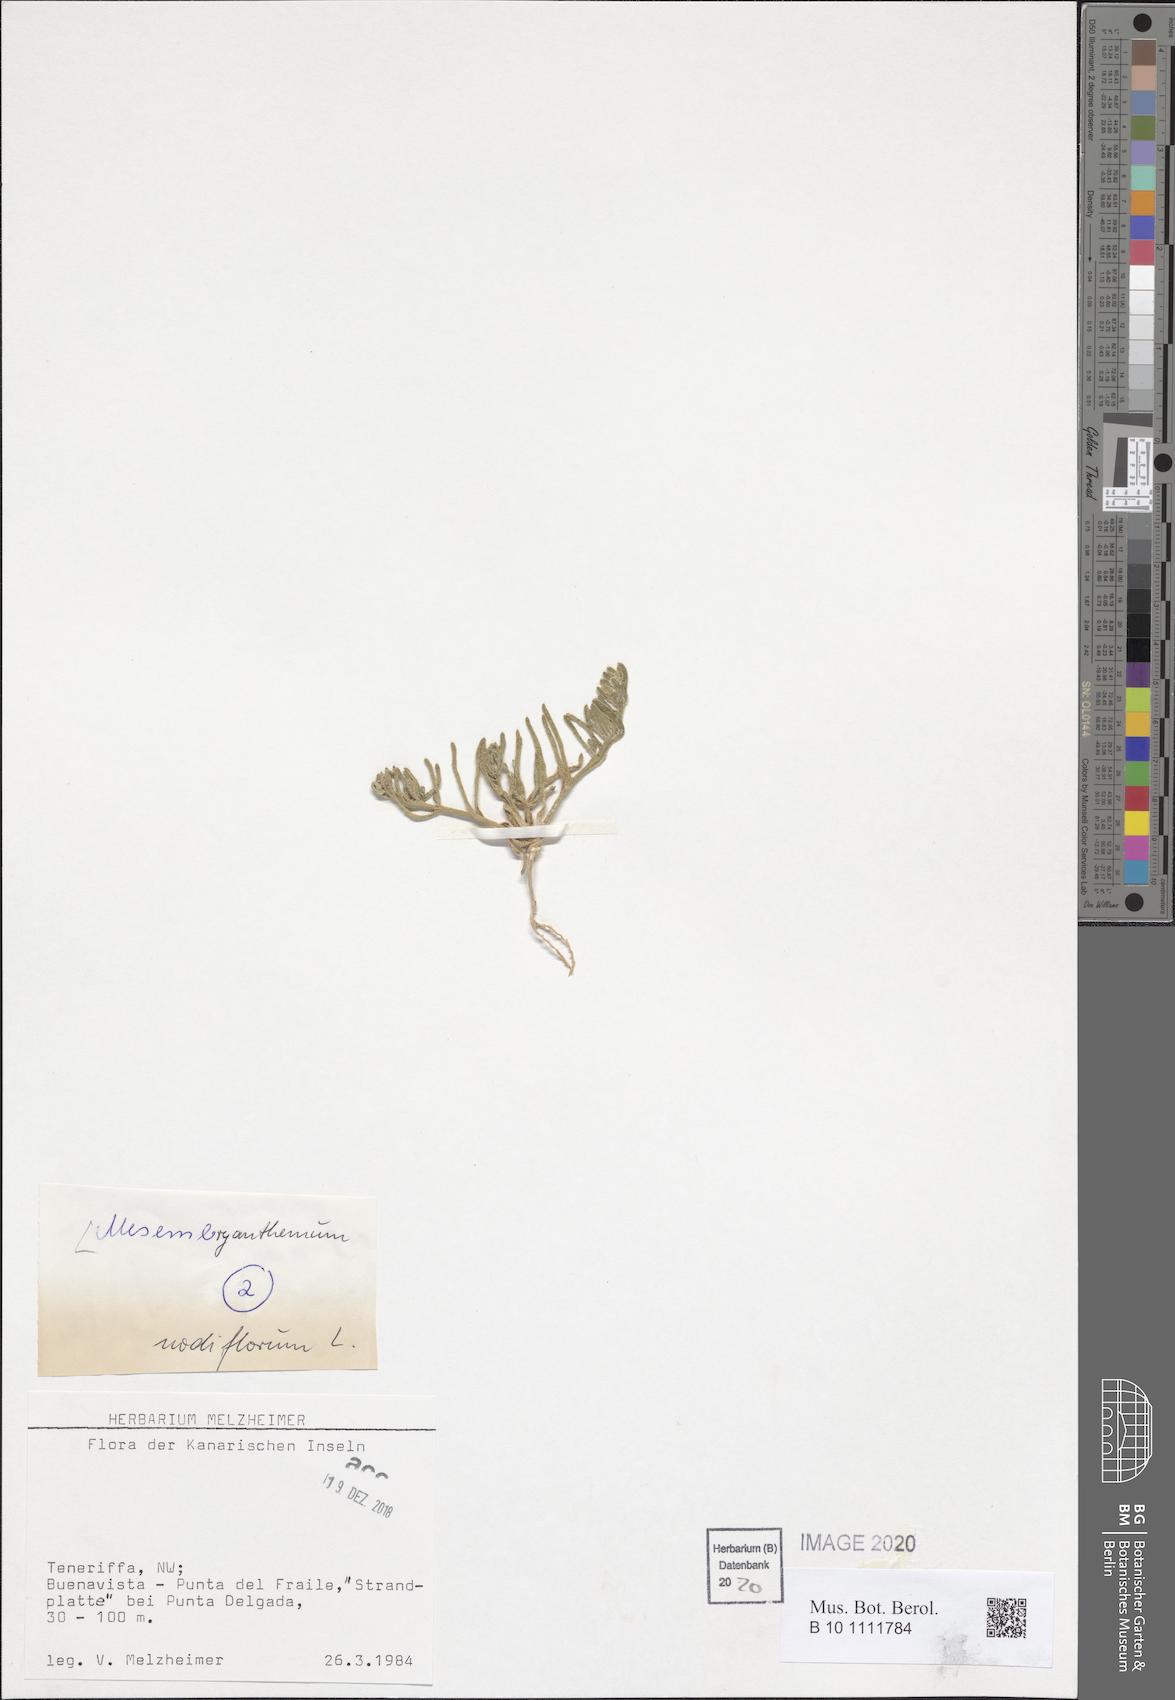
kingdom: Plantae
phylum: Tracheophyta
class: Magnoliopsida
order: Caryophyllales
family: Aizoaceae
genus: Mesembryanthemum
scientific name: Mesembryanthemum nodiflorum
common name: Slenderleaf iceplant
